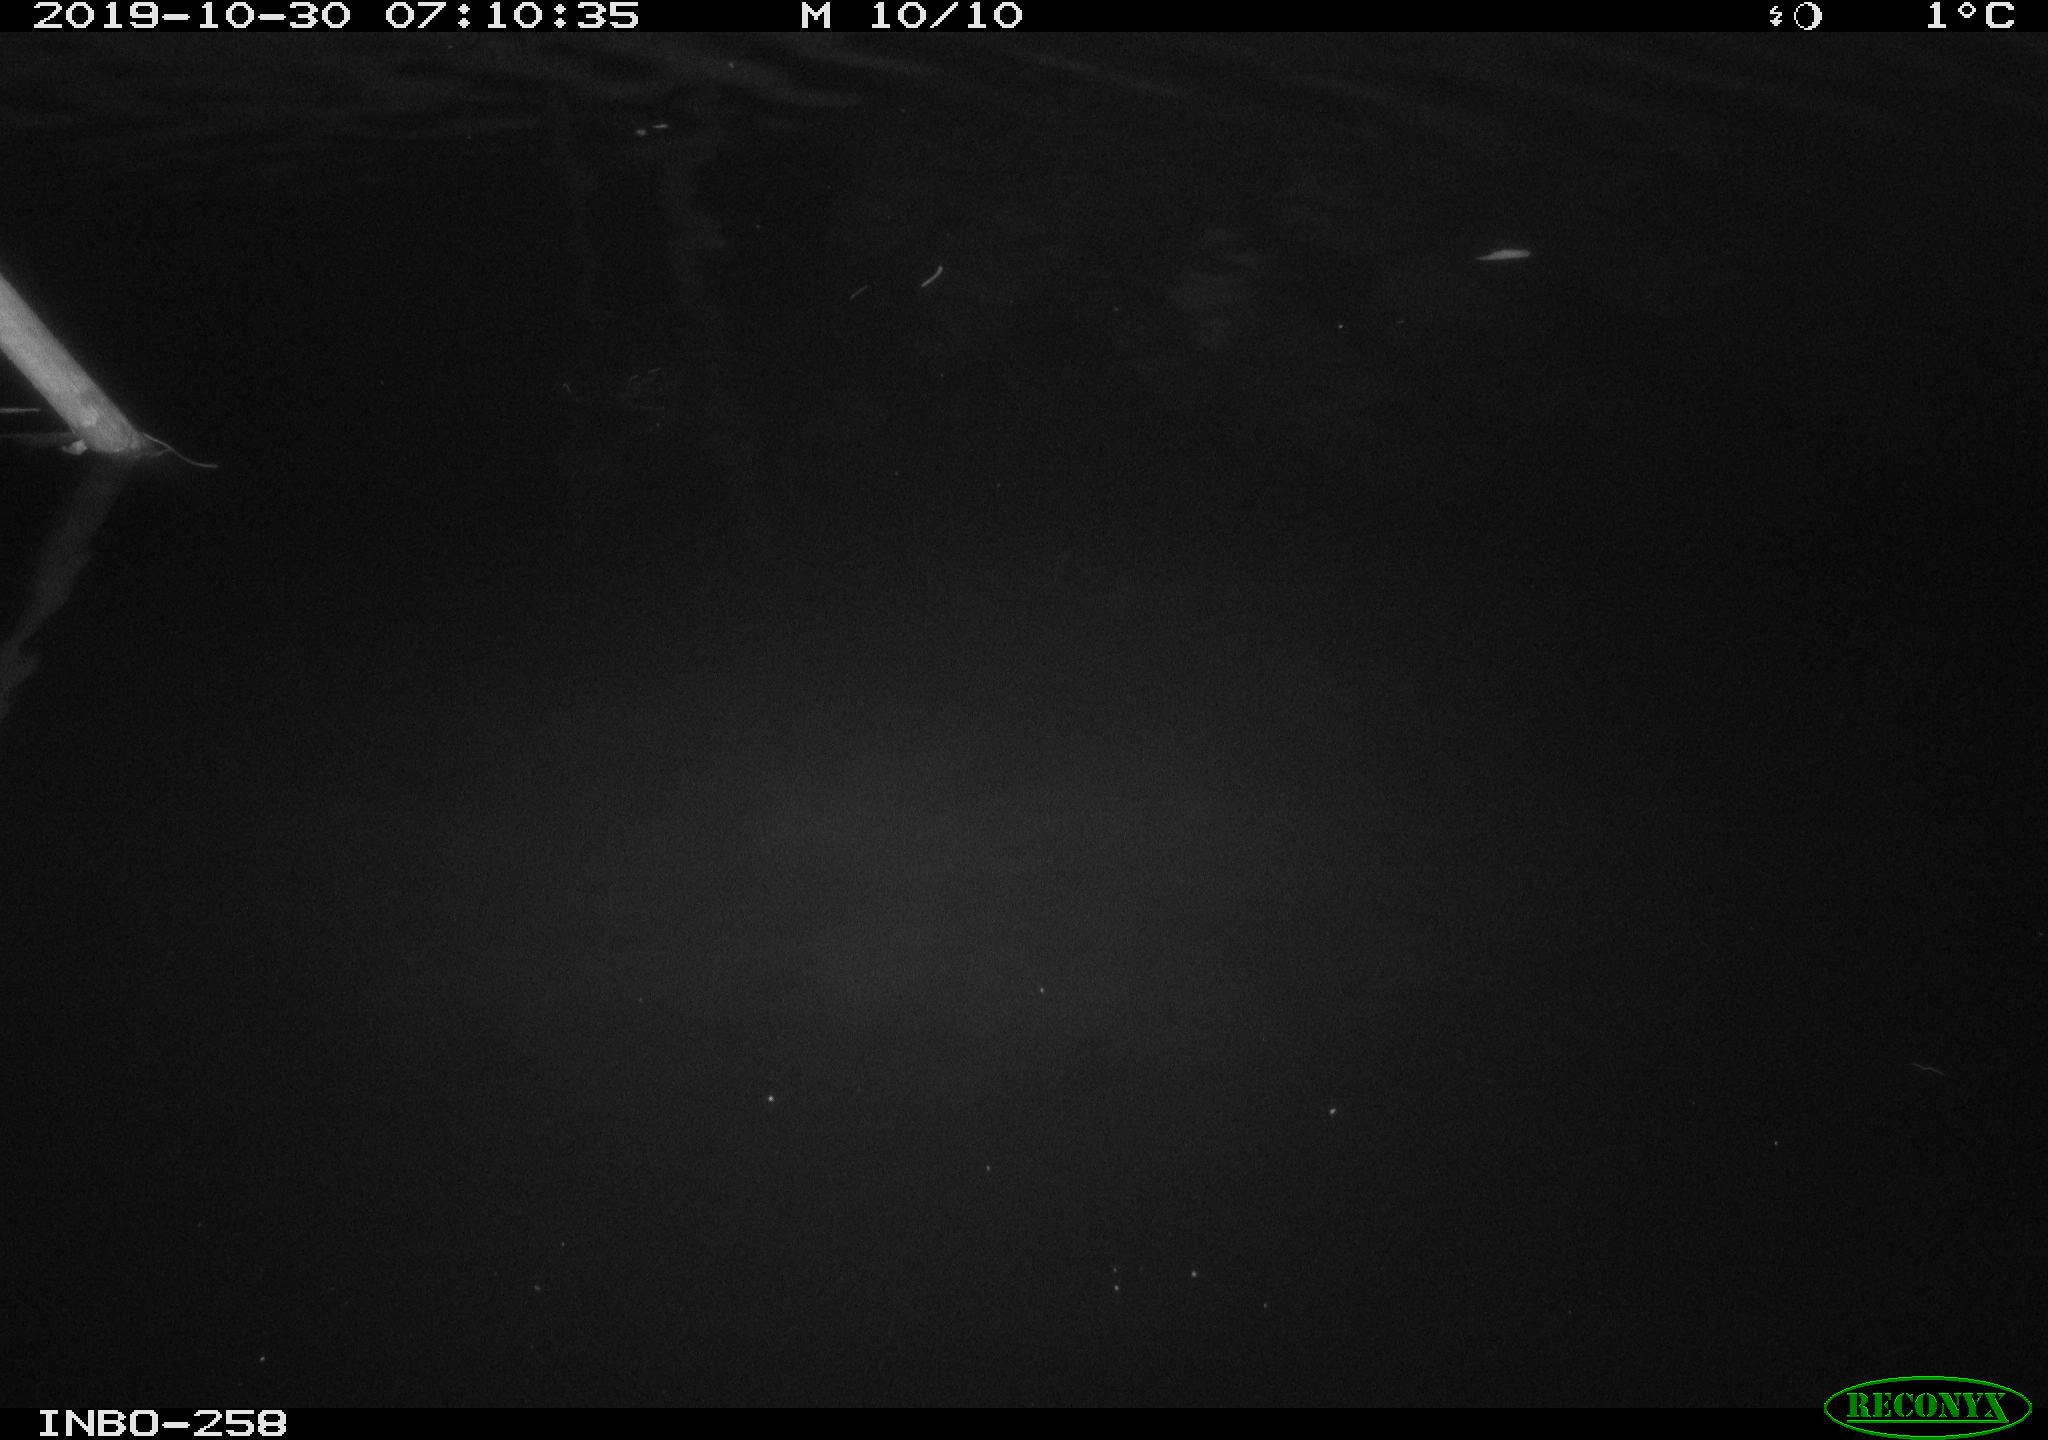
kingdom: Animalia
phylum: Chordata
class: Aves
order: Anseriformes
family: Anatidae
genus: Anas
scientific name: Anas platyrhynchos
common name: Mallard
